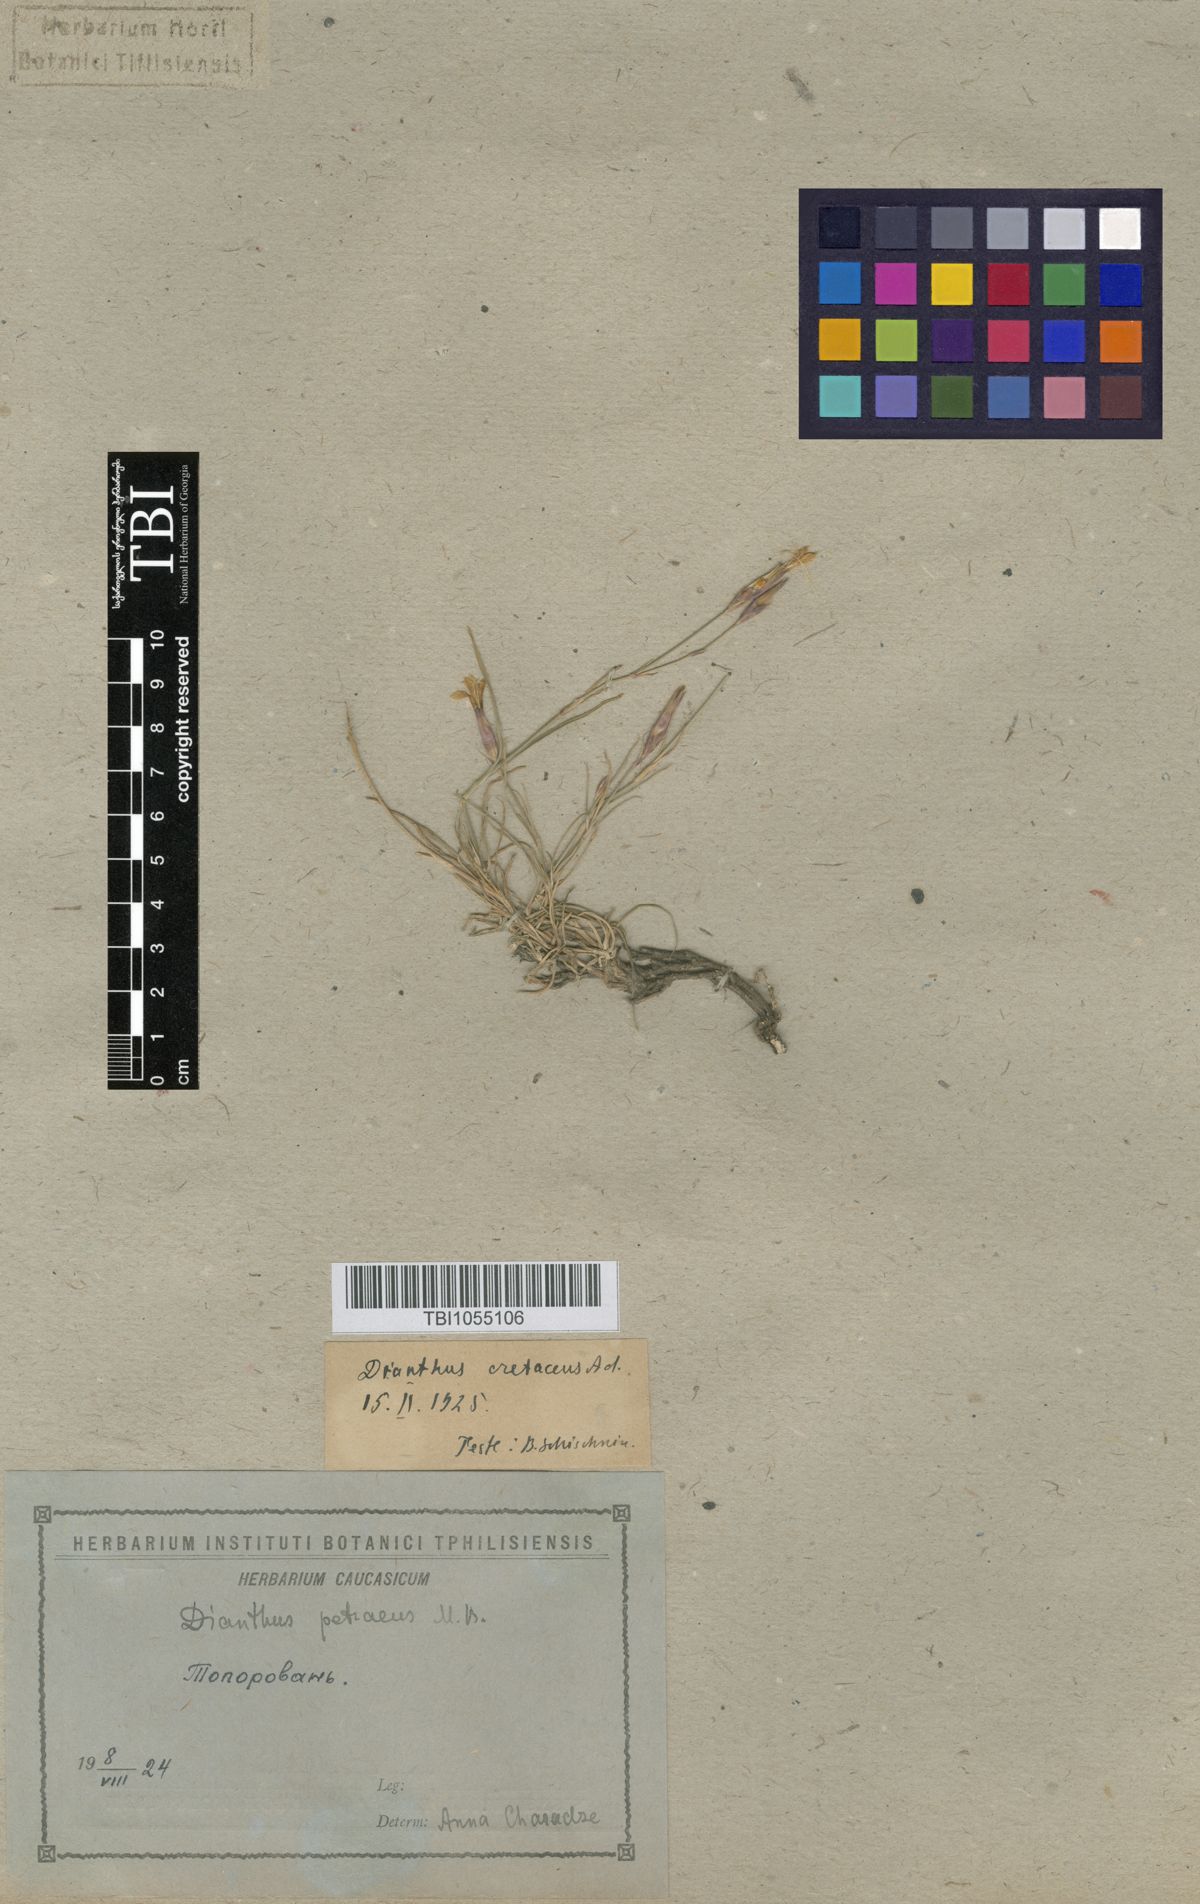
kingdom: Plantae
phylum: Tracheophyta
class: Magnoliopsida
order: Caryophyllales
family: Caryophyllaceae
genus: Dianthus
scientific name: Dianthus cretaceus
